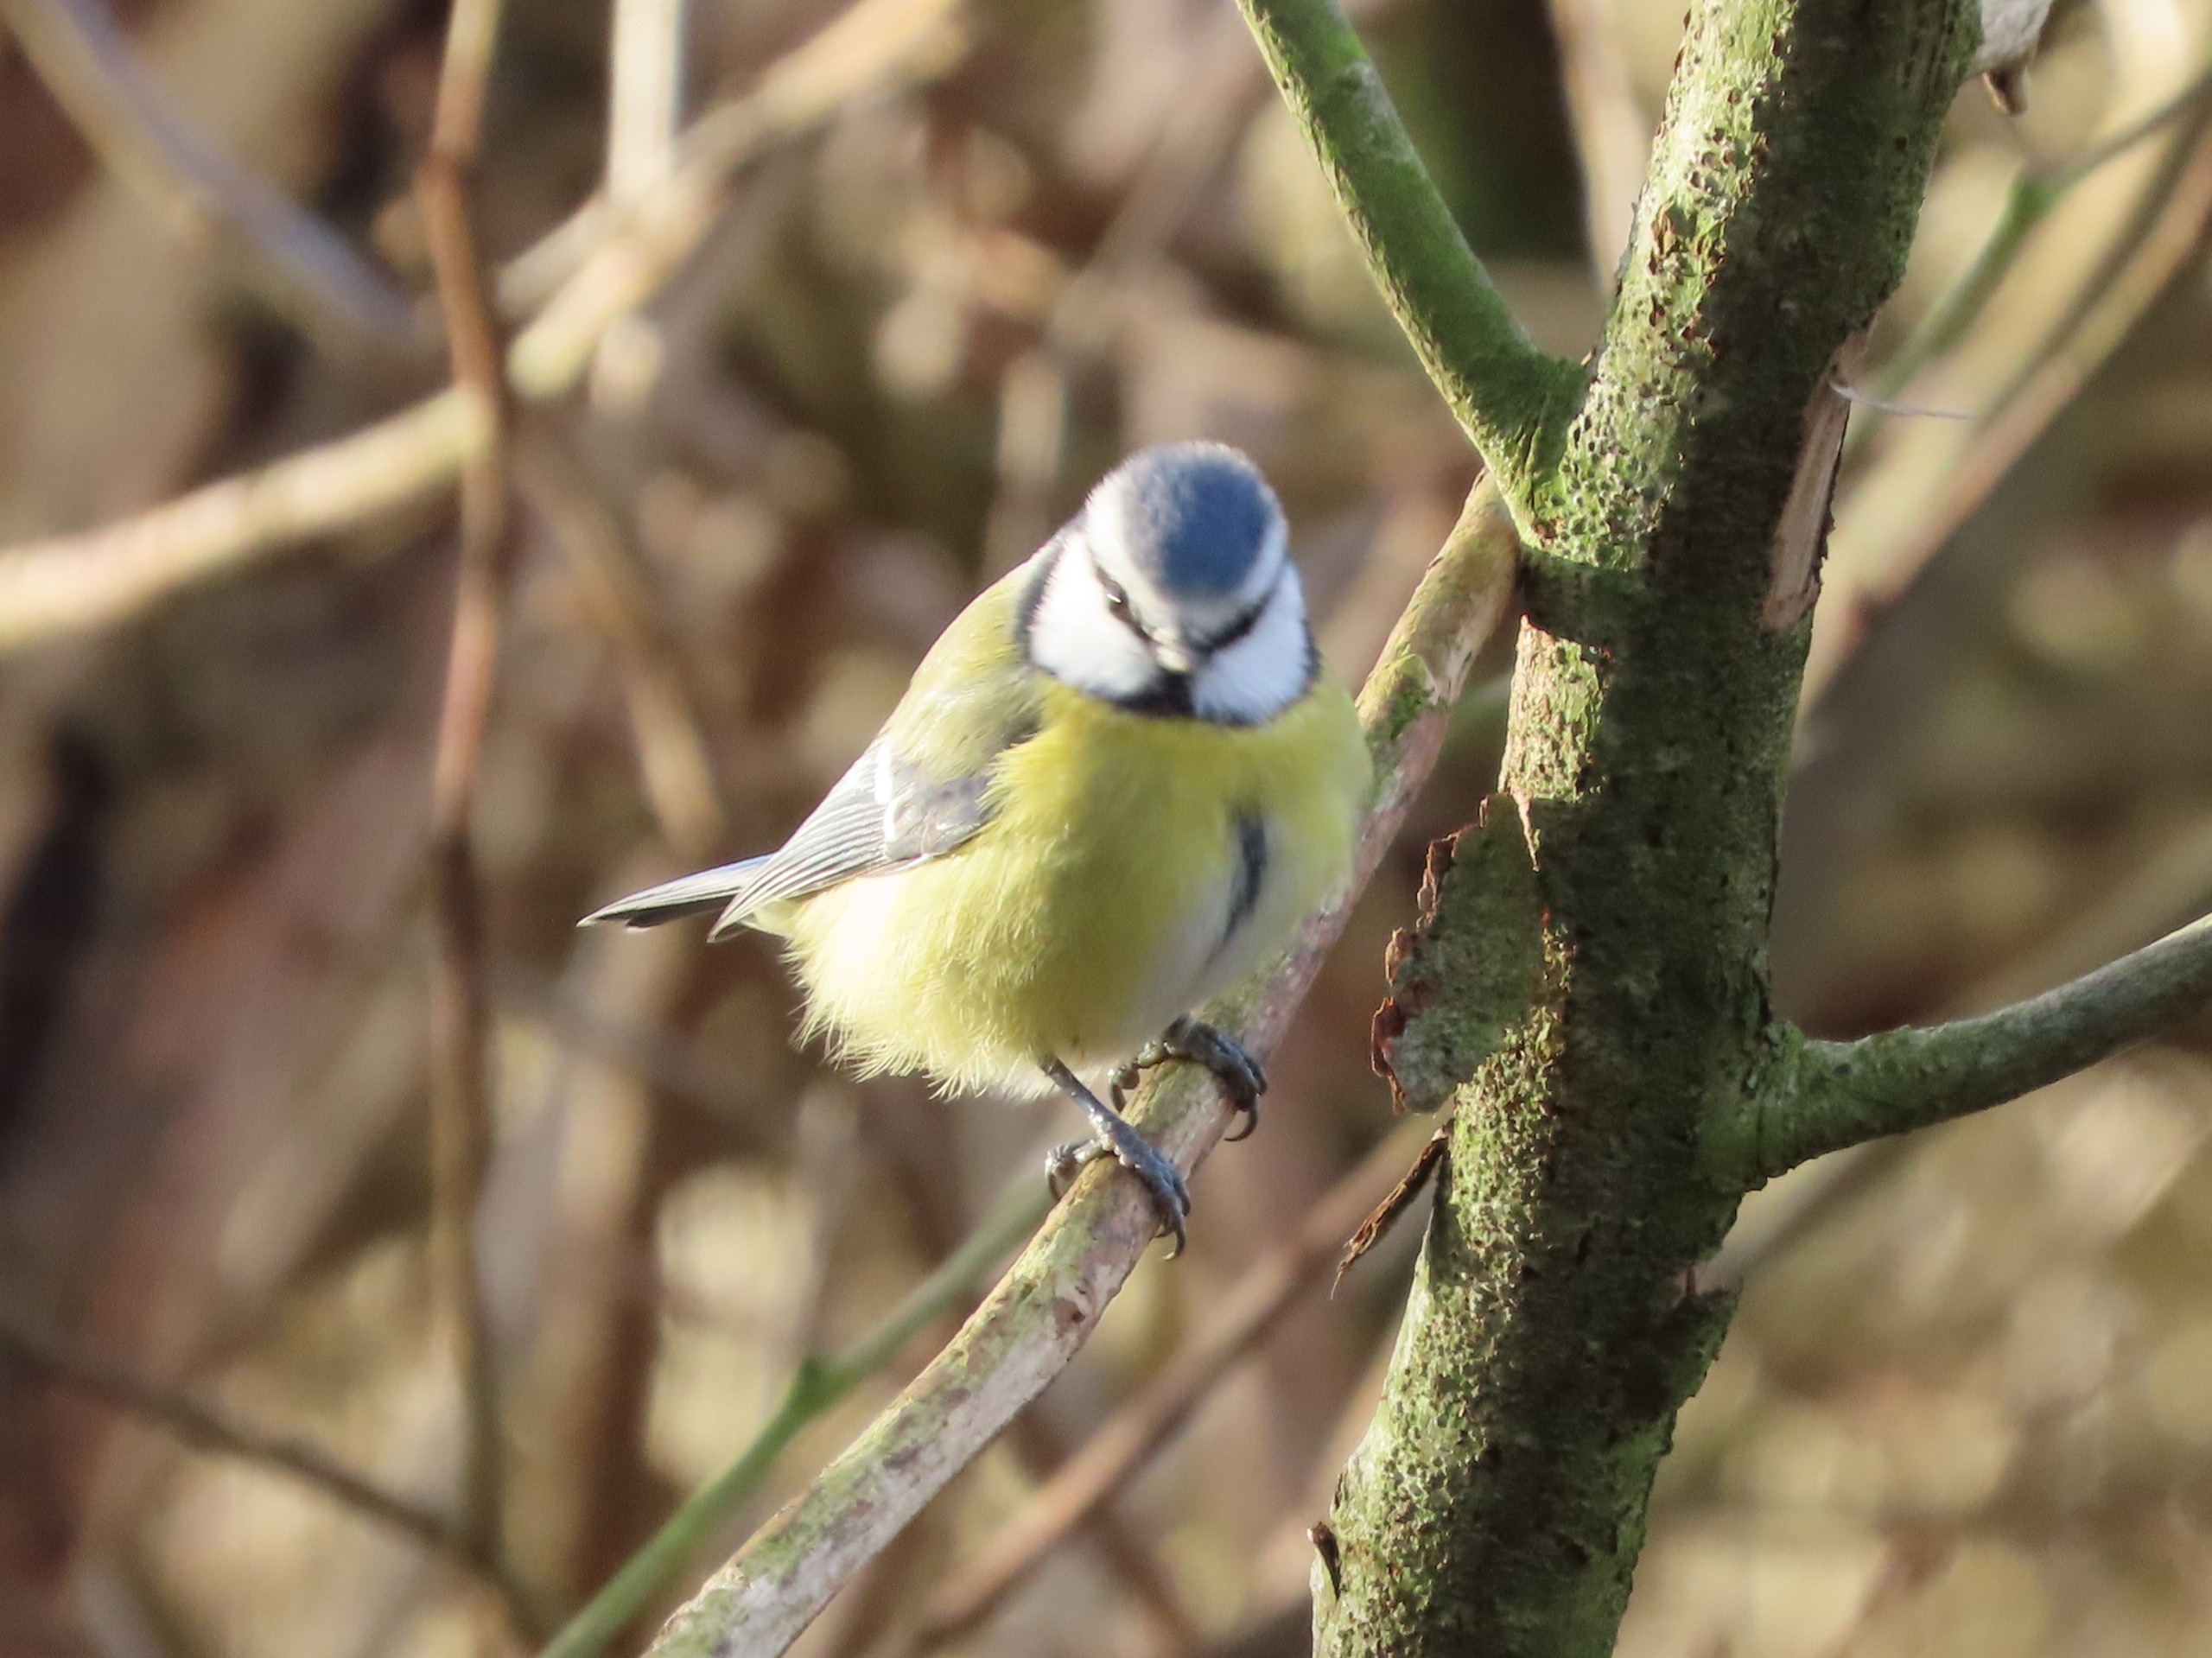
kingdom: Animalia
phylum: Chordata
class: Aves
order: Passeriformes
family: Paridae
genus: Cyanistes
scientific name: Cyanistes caeruleus
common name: Blåmejse
